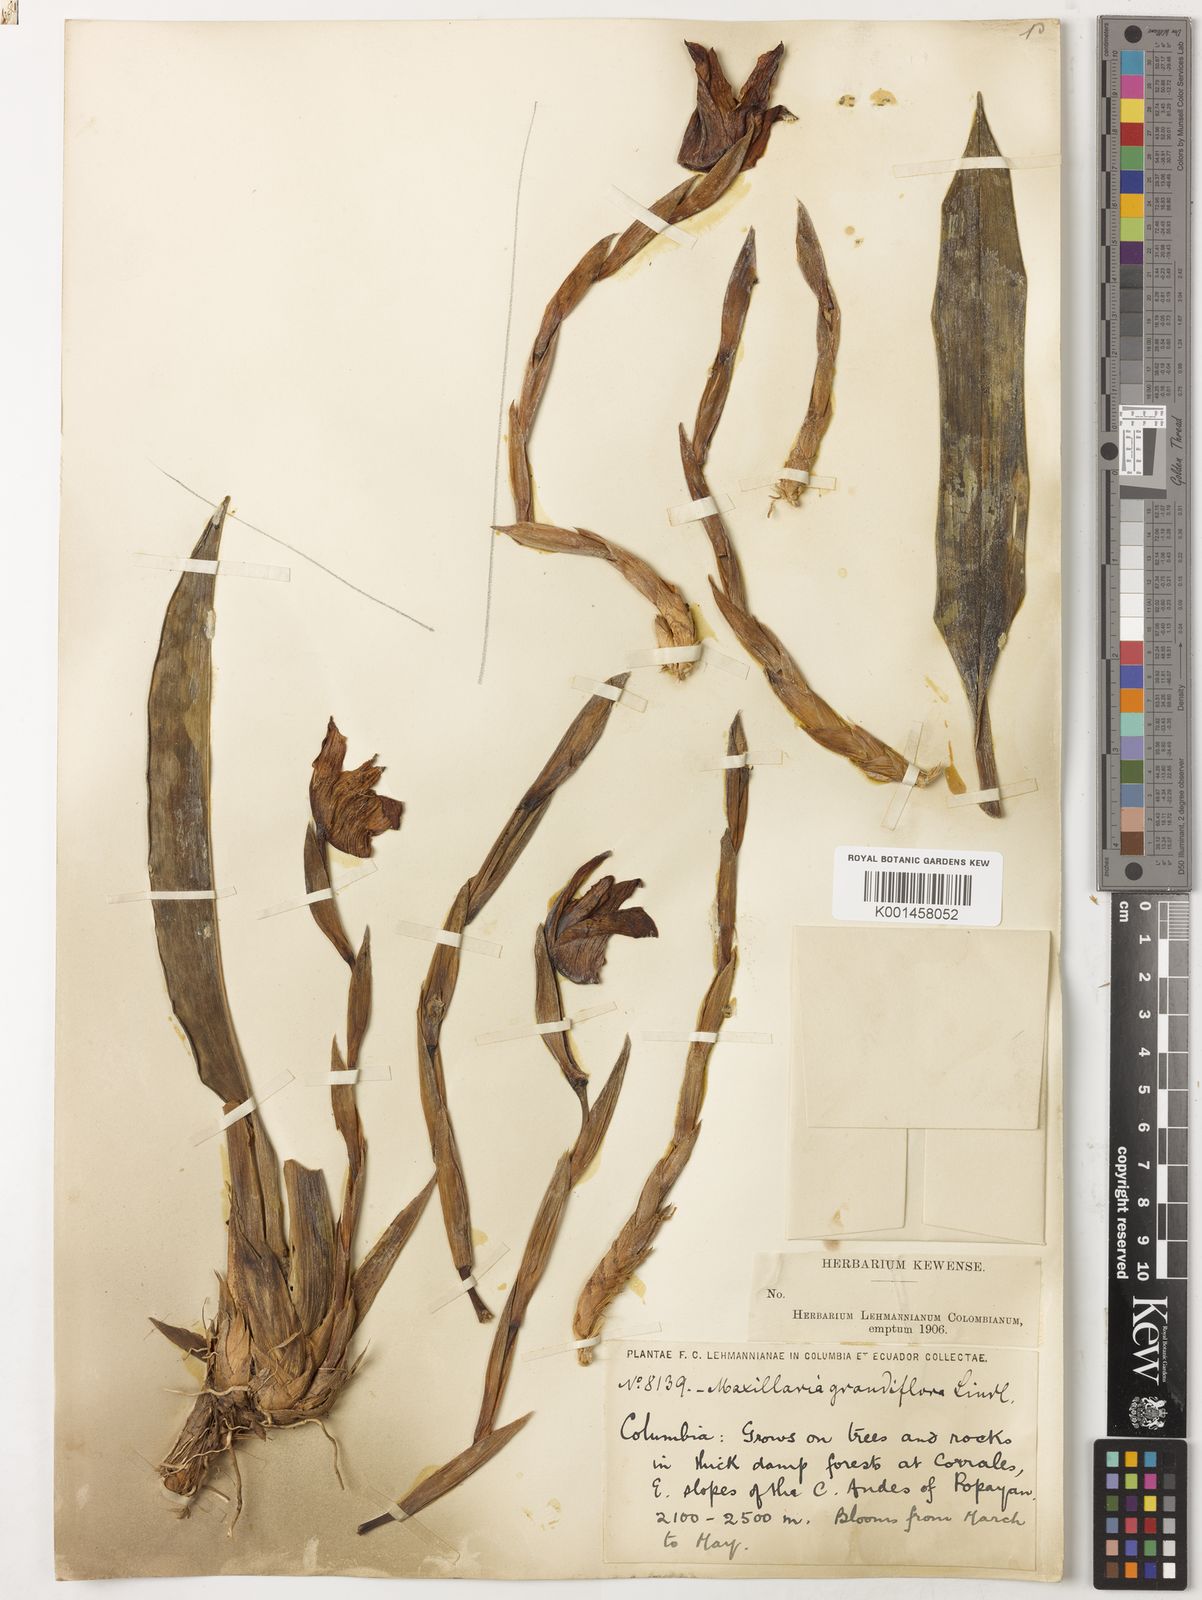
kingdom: Plantae
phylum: Tracheophyta
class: Liliopsida
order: Asparagales
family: Orchidaceae
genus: Maxillaria
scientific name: Maxillaria grandiflora
